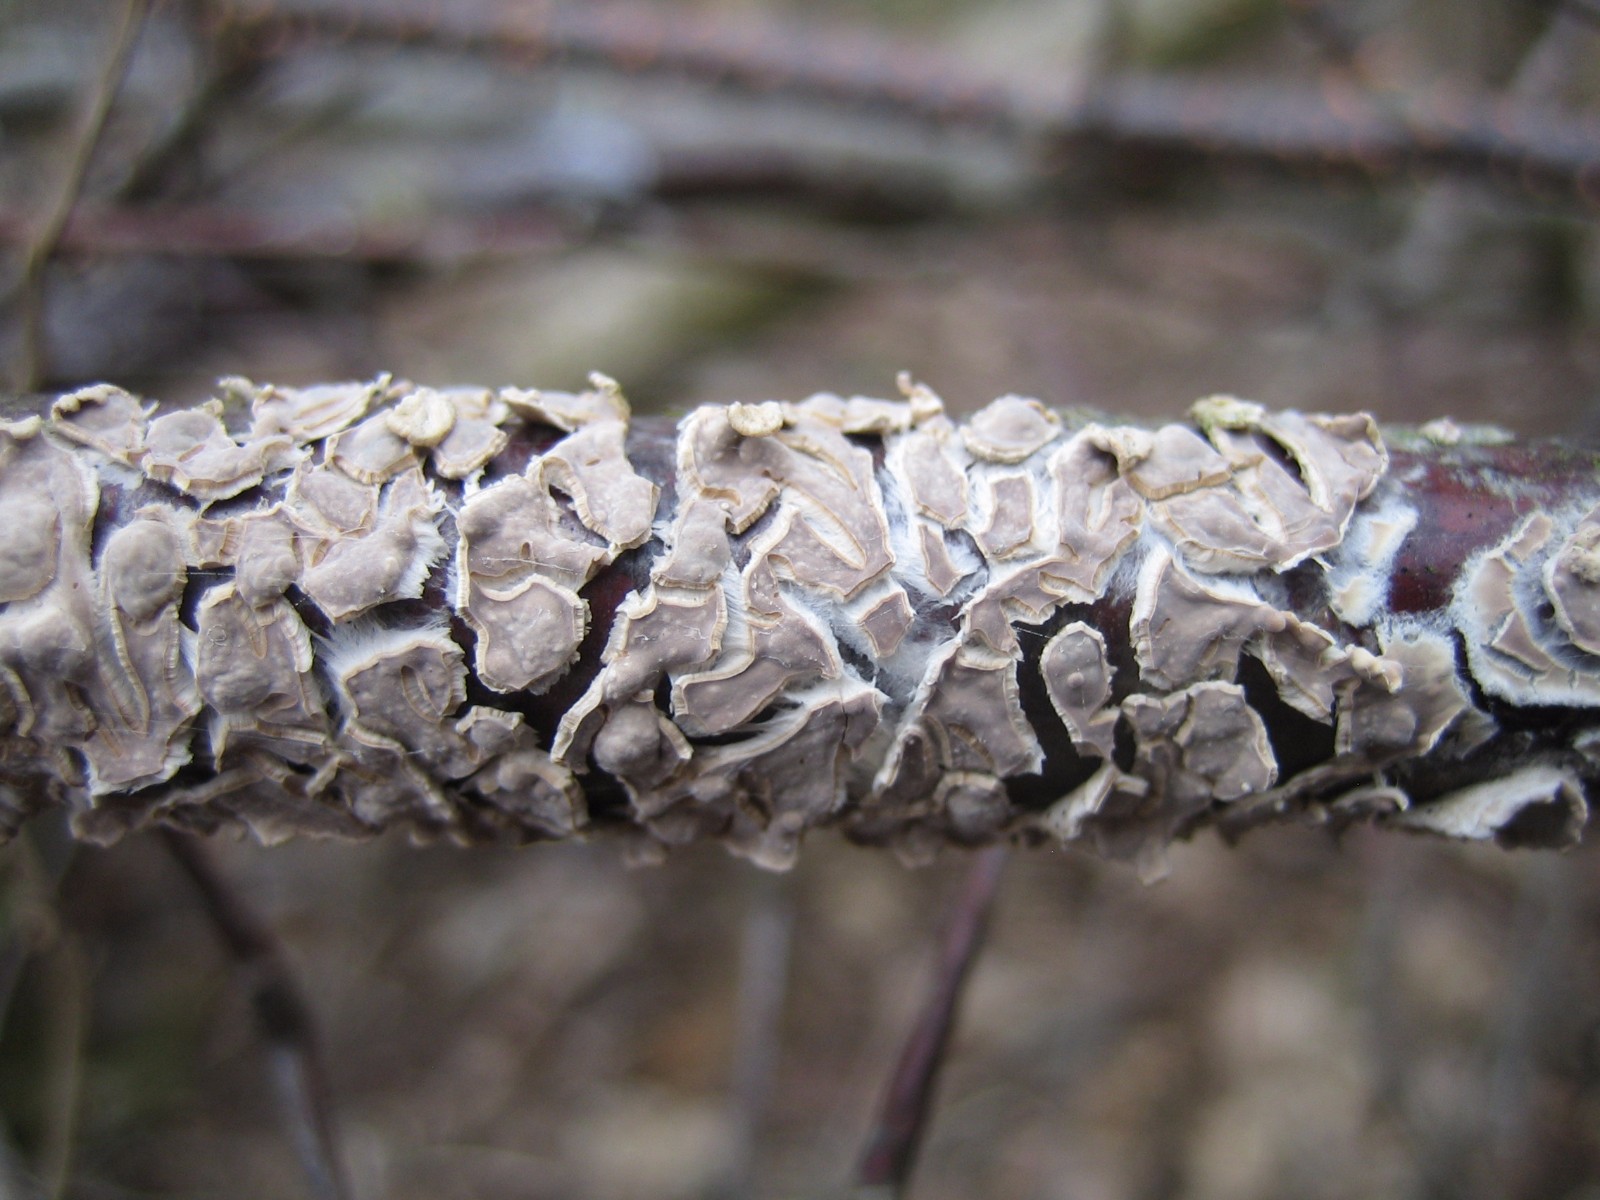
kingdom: Fungi
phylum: Basidiomycota
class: Agaricomycetes
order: Agaricales
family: Physalacriaceae
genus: Cylindrobasidium
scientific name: Cylindrobasidium evolvens
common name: sprækkehinde
